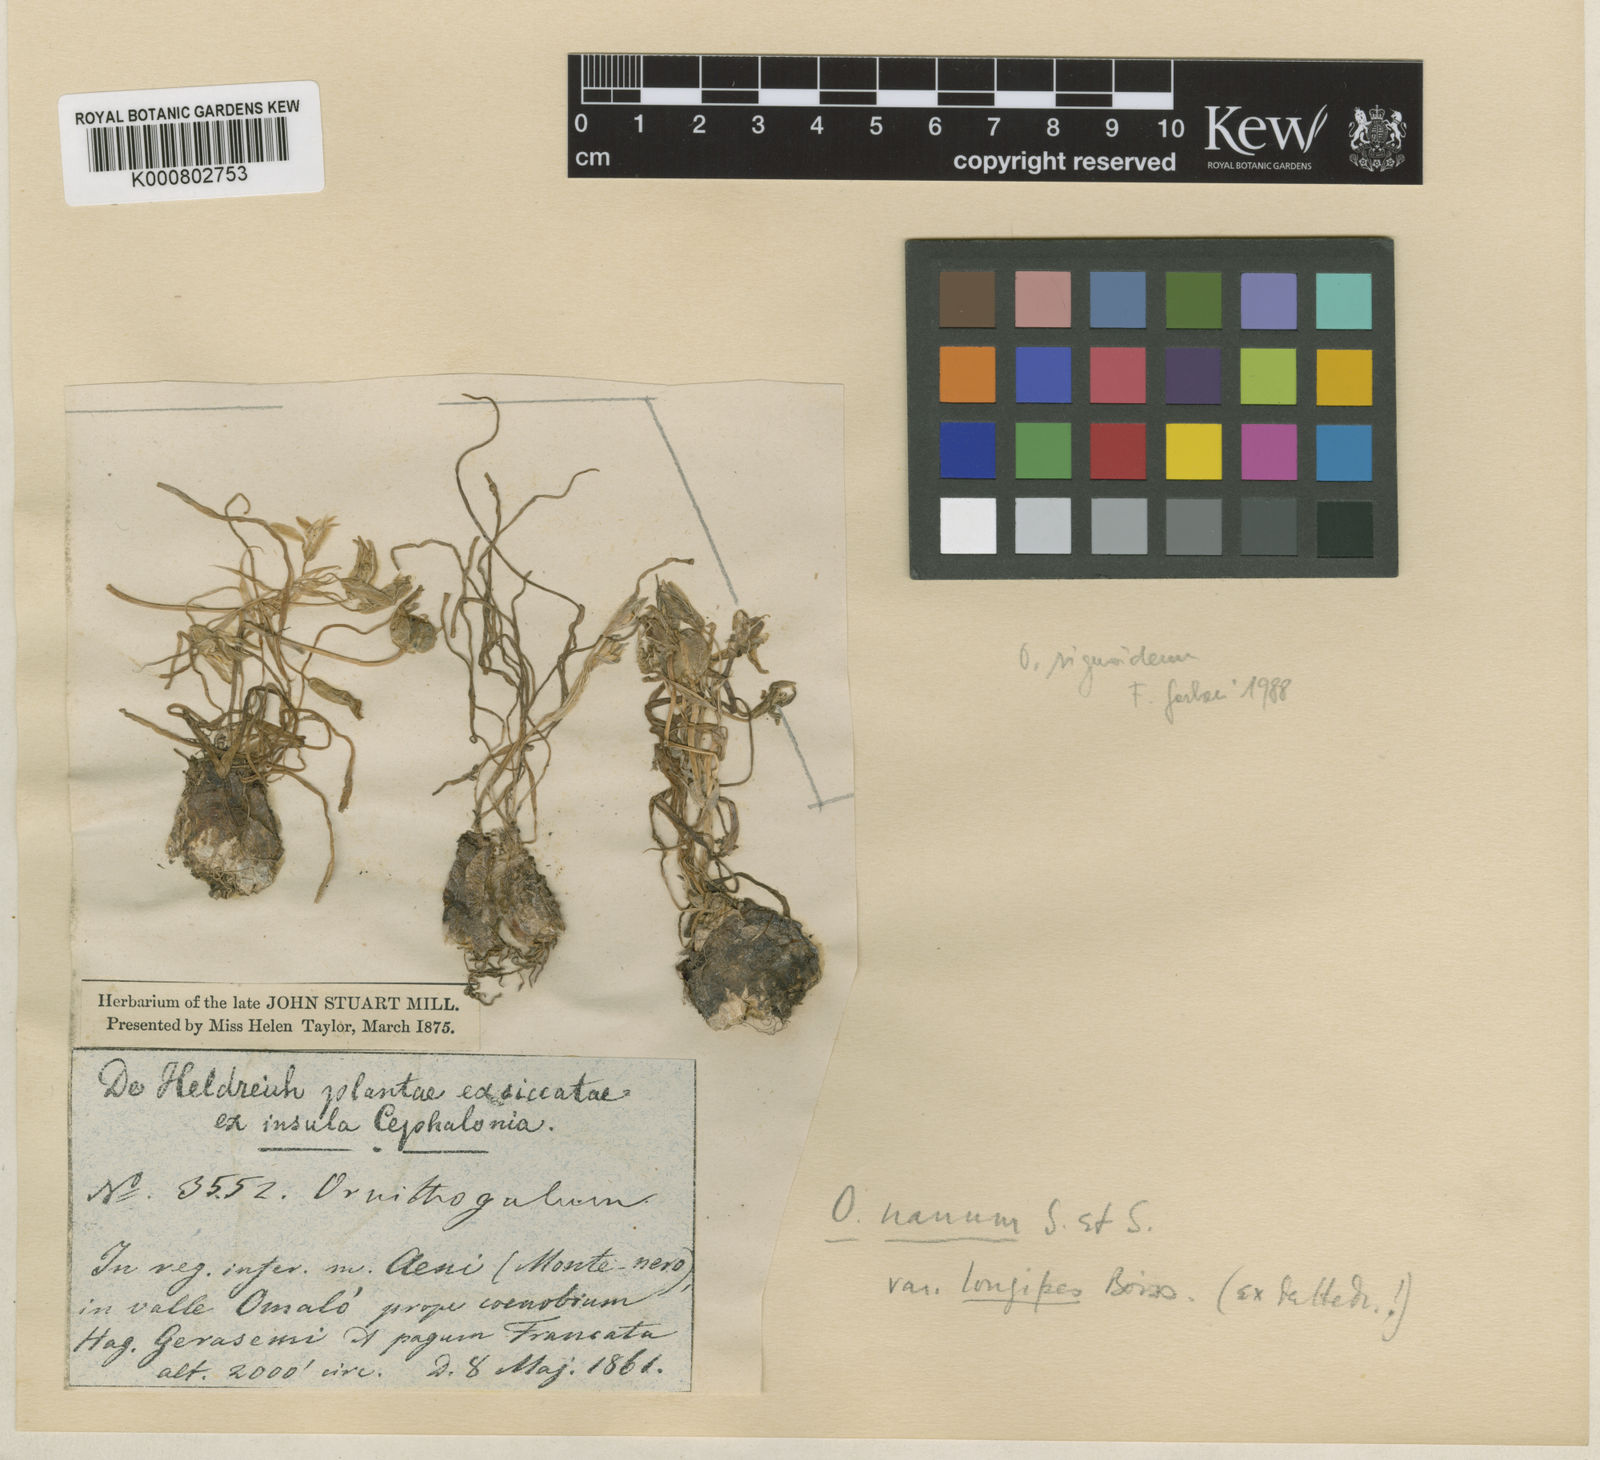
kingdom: Plantae
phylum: Tracheophyta
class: Liliopsida
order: Asparagales
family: Asparagaceae
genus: Ornithogalum
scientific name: Ornithogalum sigmoideum
